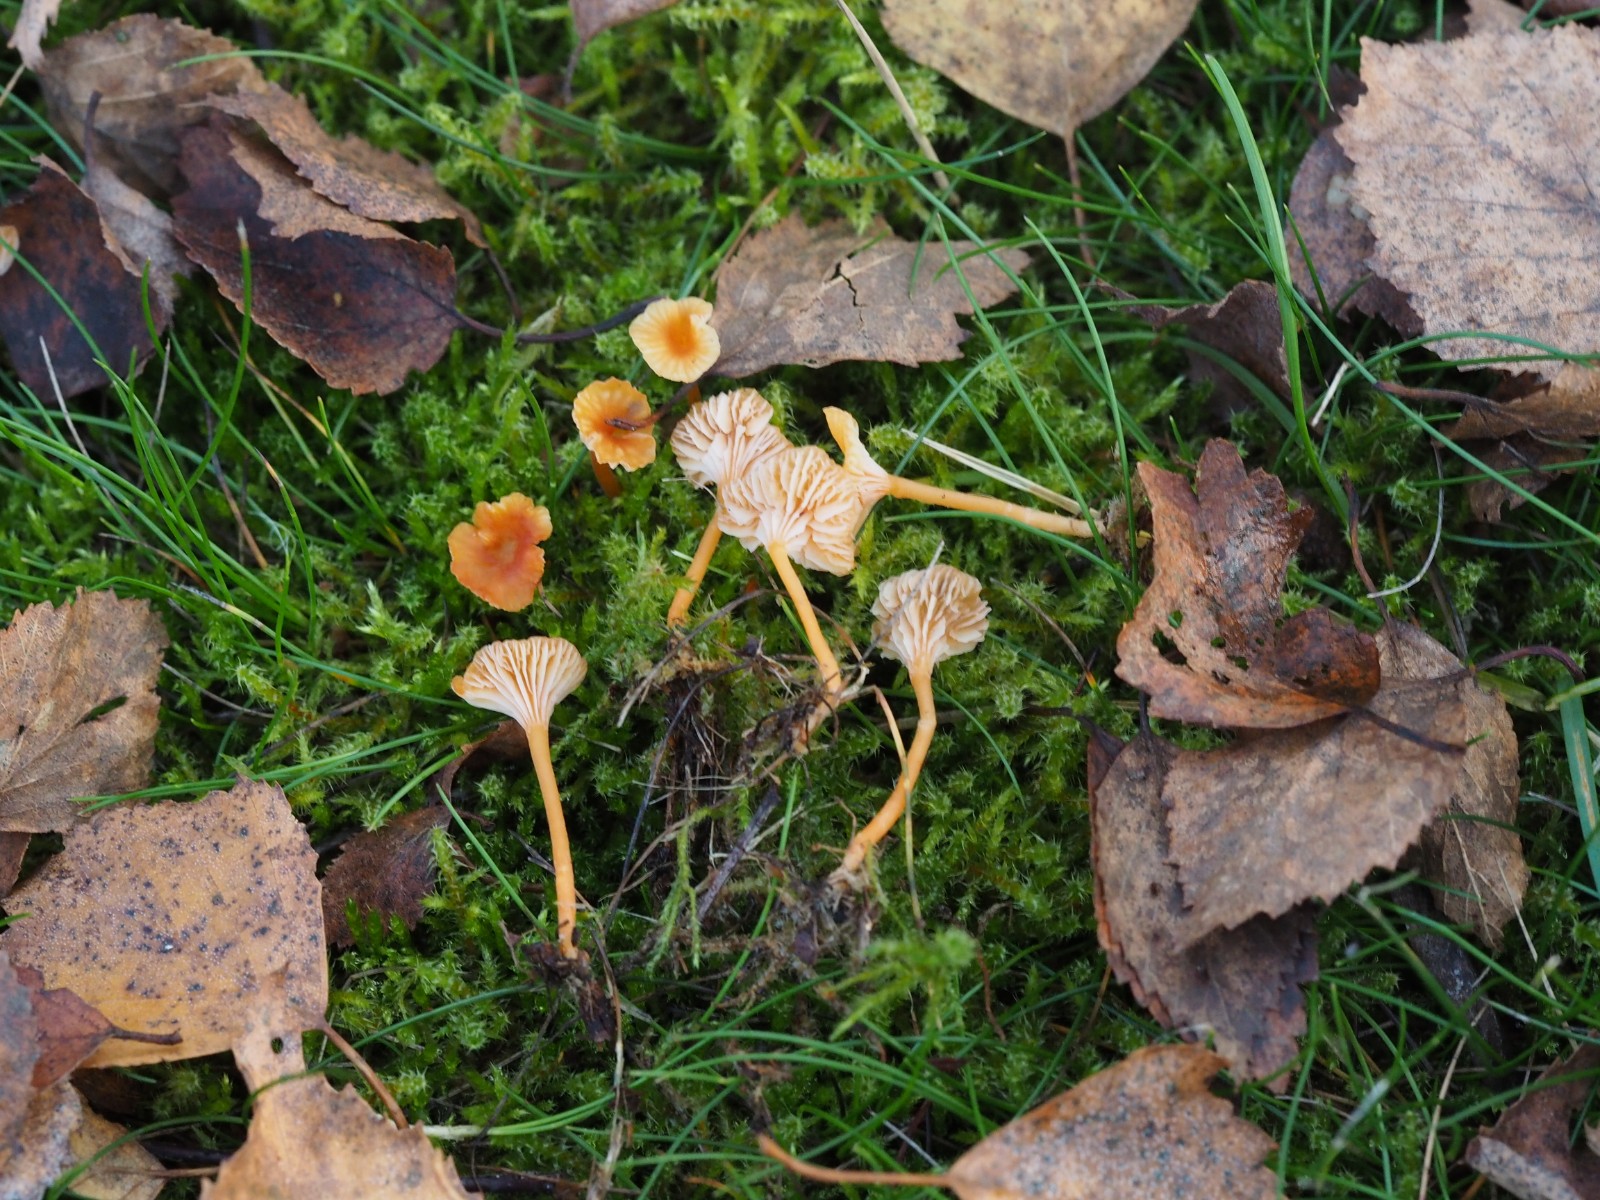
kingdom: Fungi
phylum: Basidiomycota
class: Agaricomycetes
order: Hymenochaetales
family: Rickenellaceae
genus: Rickenella
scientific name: Rickenella fibula
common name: orange mosnavlehat
